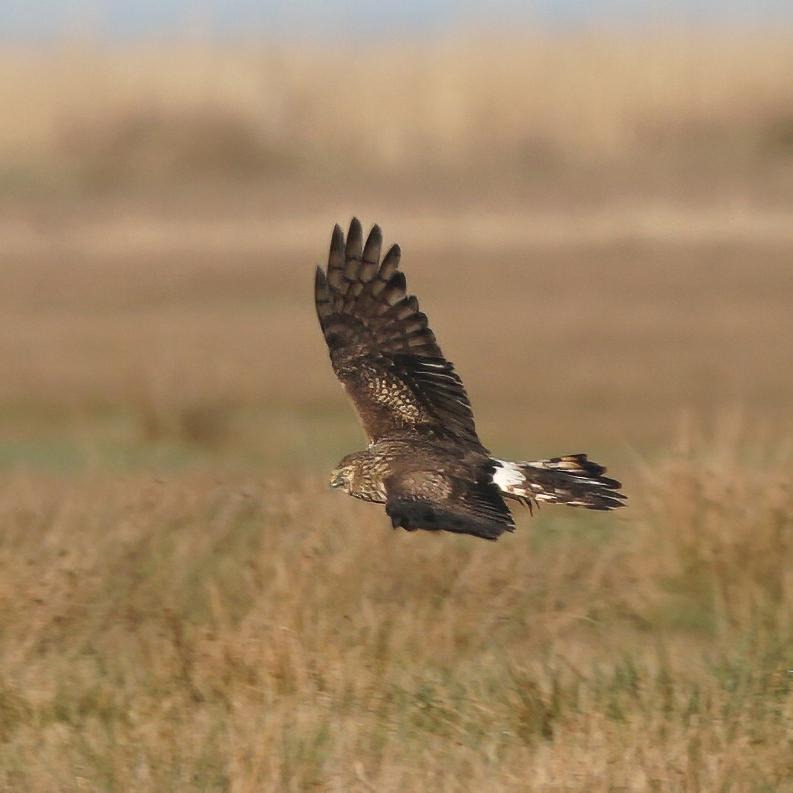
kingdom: Animalia
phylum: Chordata
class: Aves
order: Accipitriformes
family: Accipitridae
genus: Circus
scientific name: Circus cyaneus
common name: Blå kærhøg
